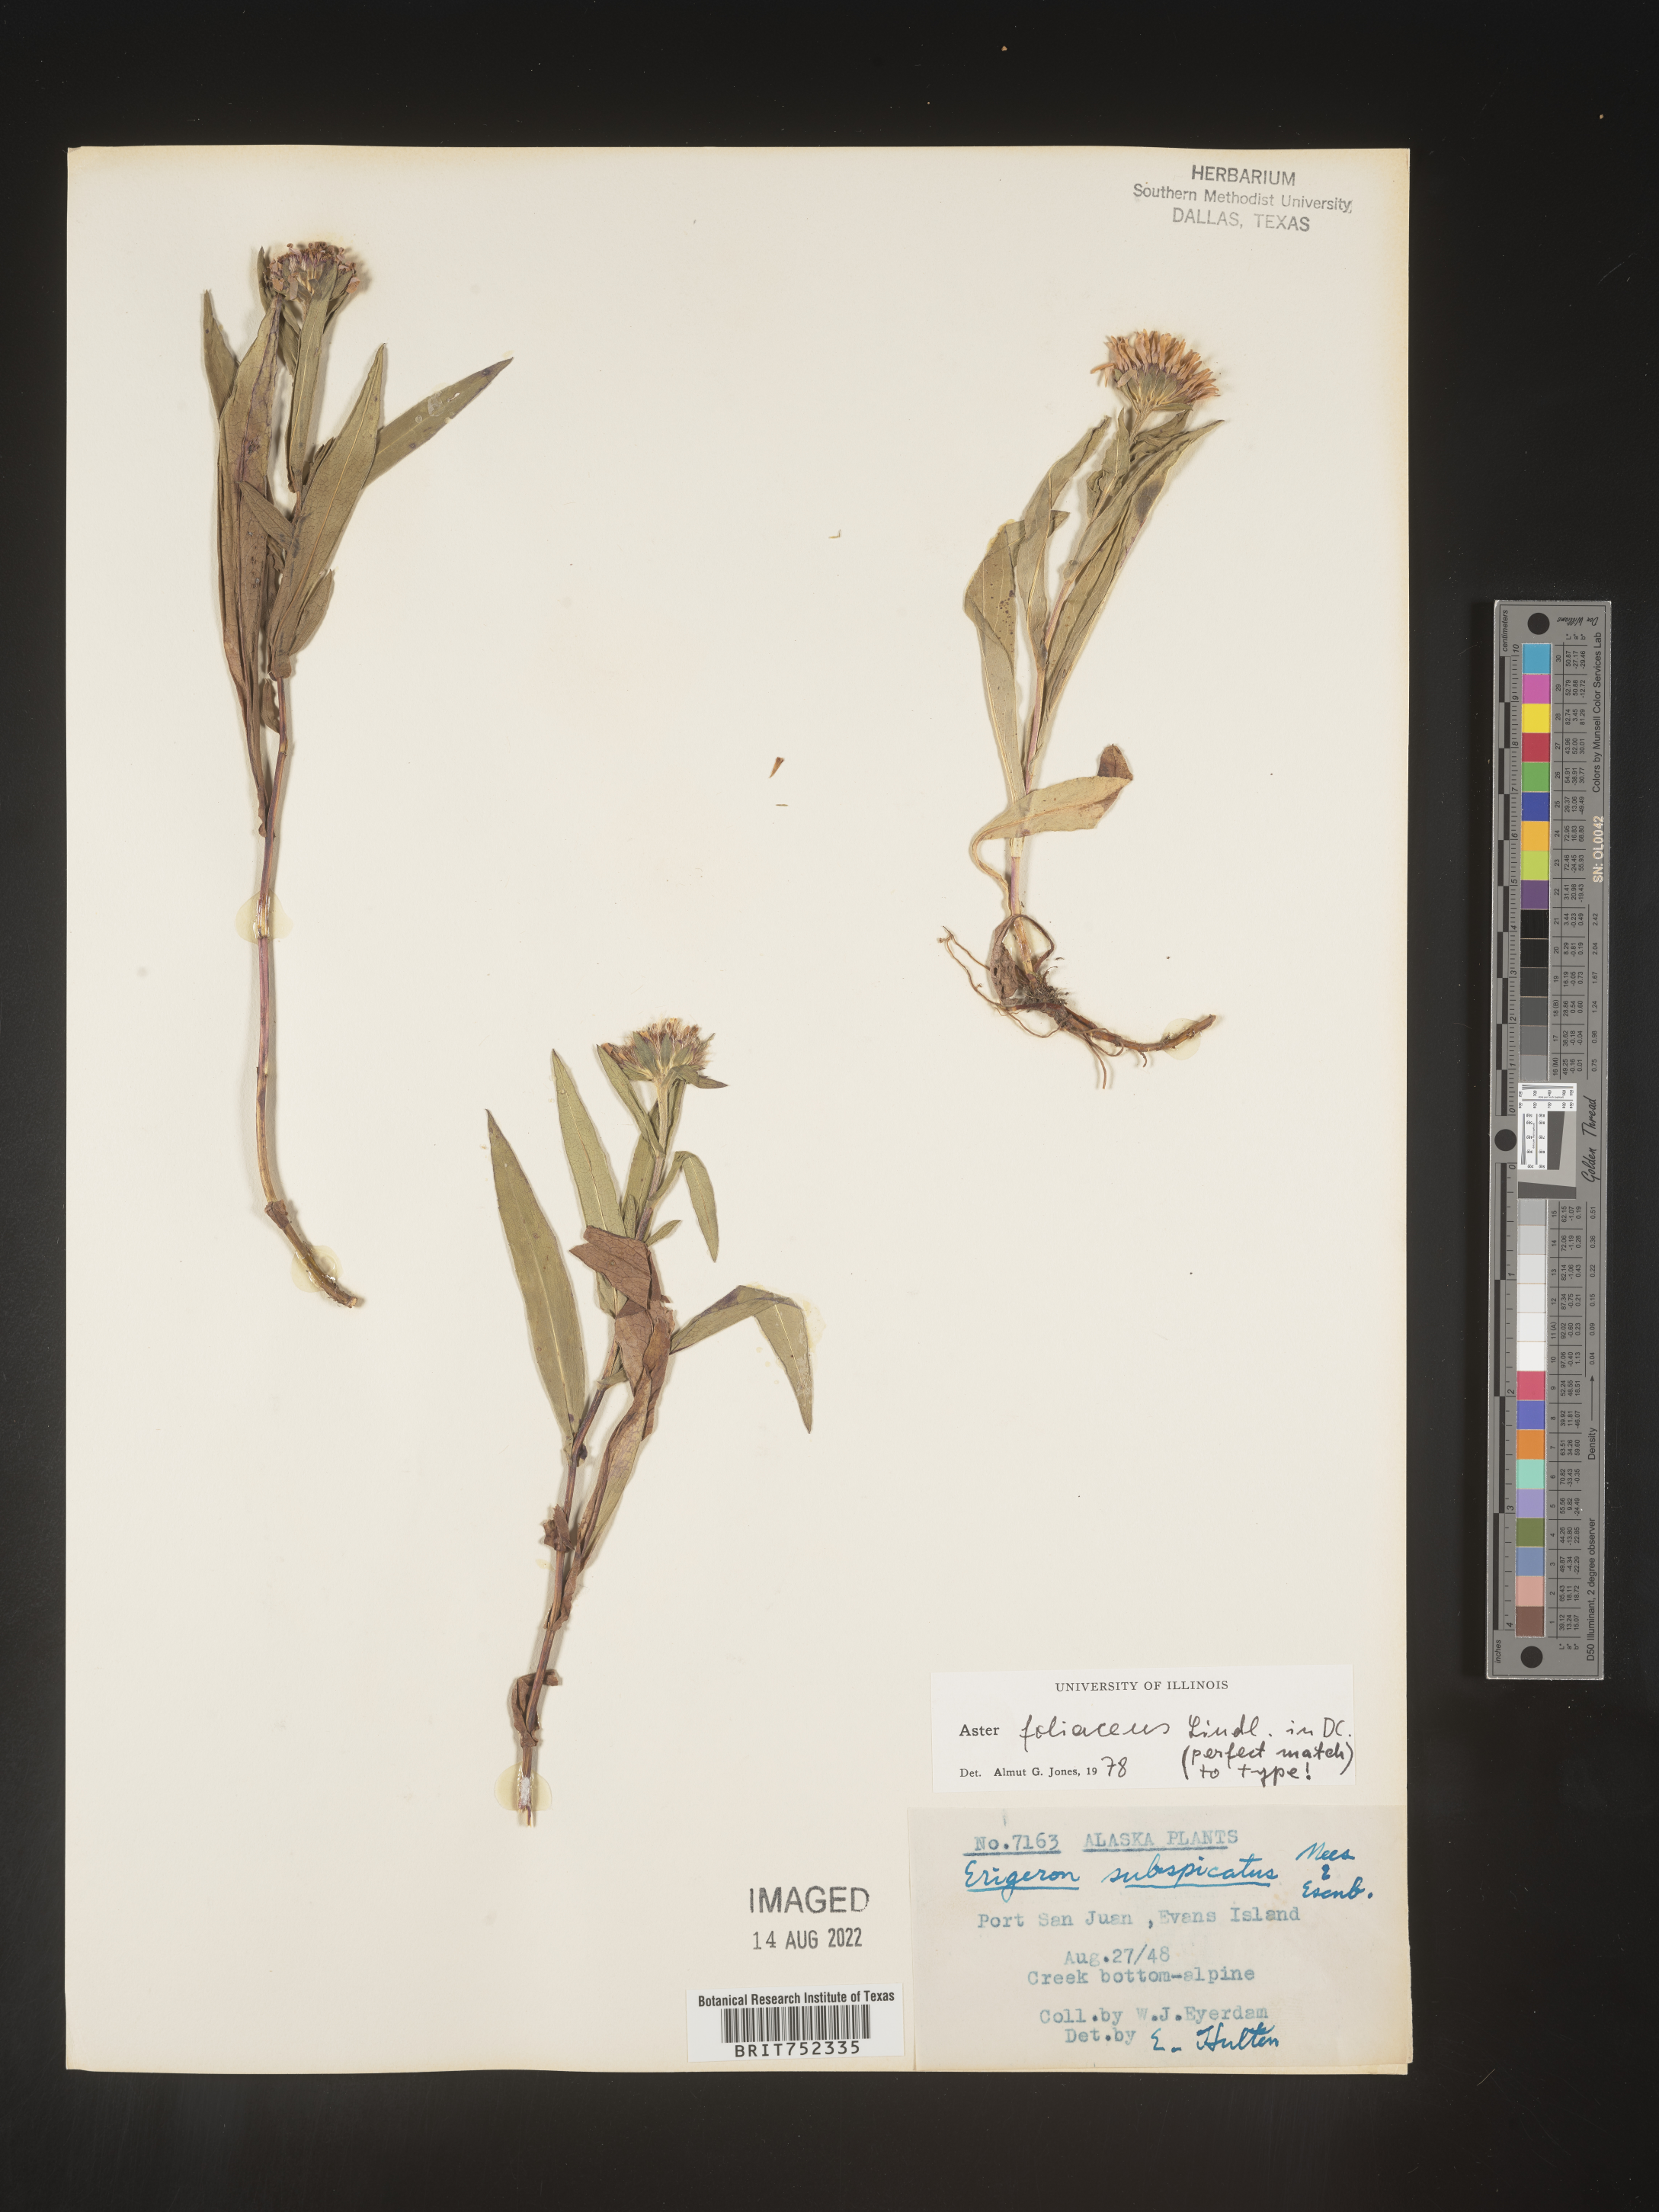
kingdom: Plantae
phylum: Tracheophyta
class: Magnoliopsida
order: Asterales
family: Asteraceae
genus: Symphyotrichum
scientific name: Symphyotrichum foliaceum
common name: Leafy aster
